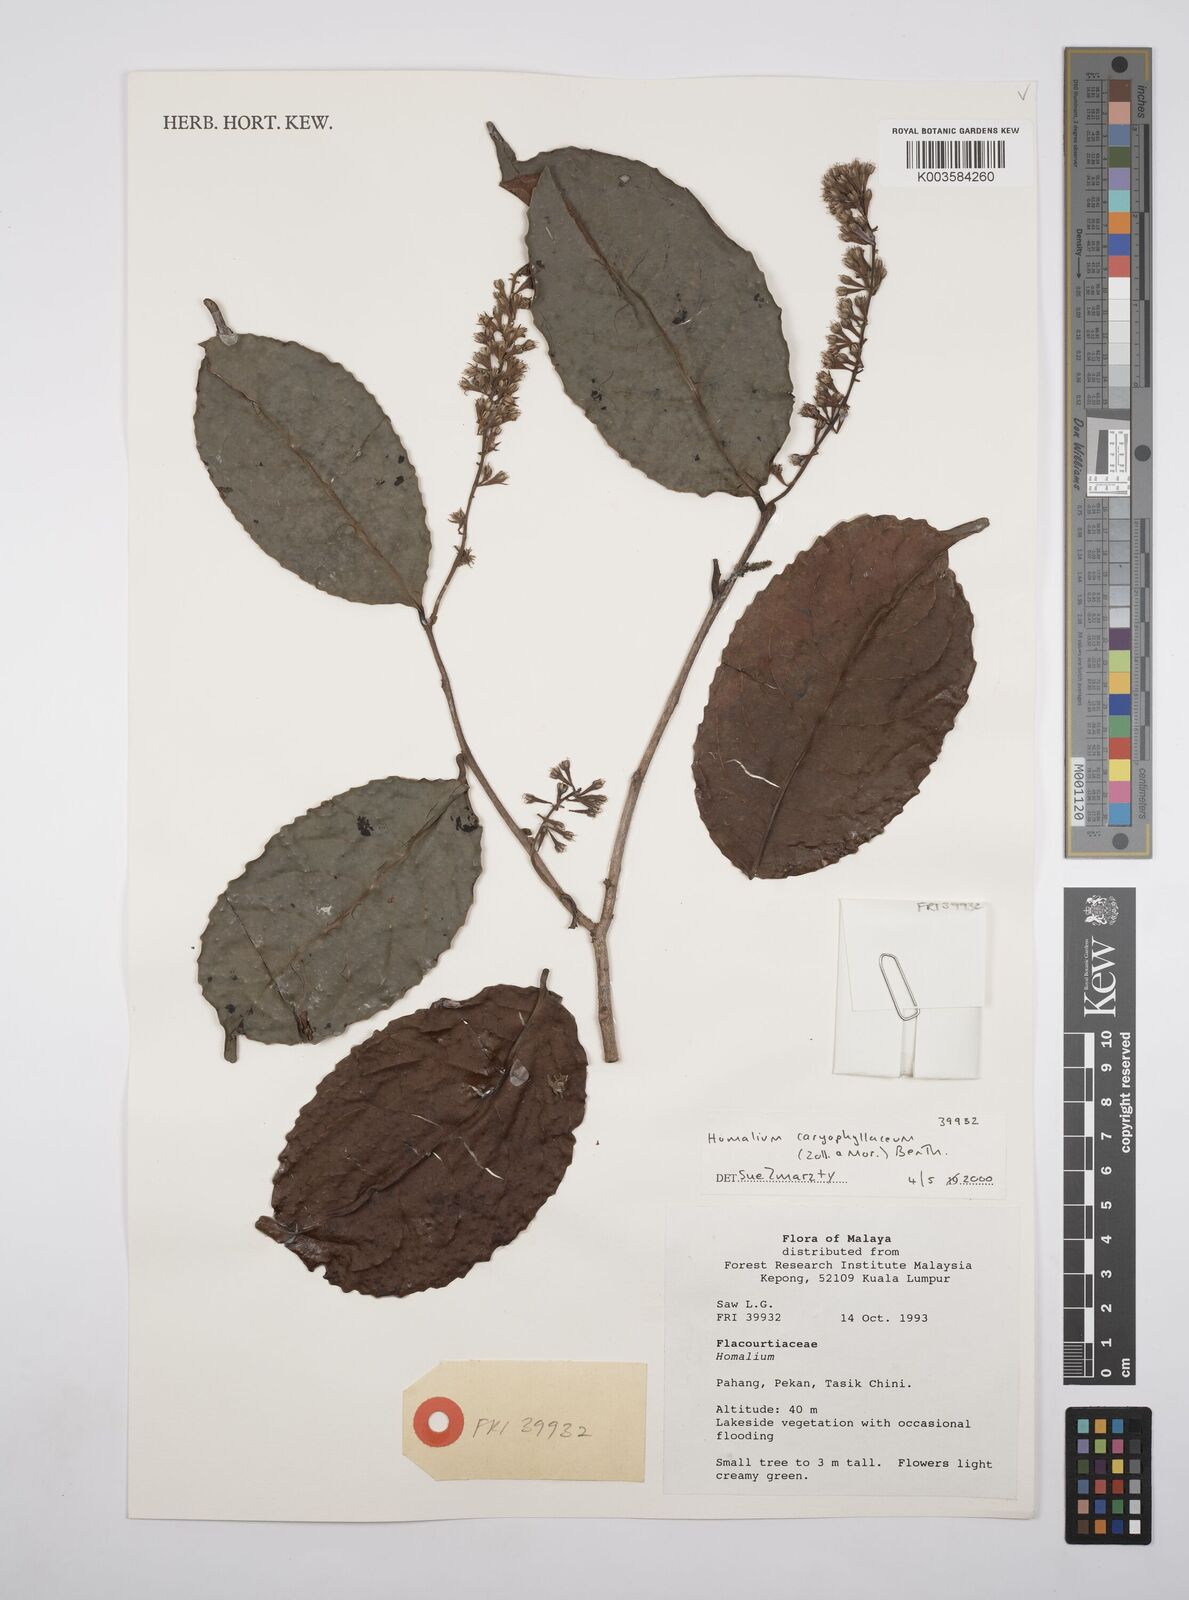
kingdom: Plantae
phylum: Tracheophyta
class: Magnoliopsida
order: Malpighiales
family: Salicaceae
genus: Homalium
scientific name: Homalium caryophyllaceum
